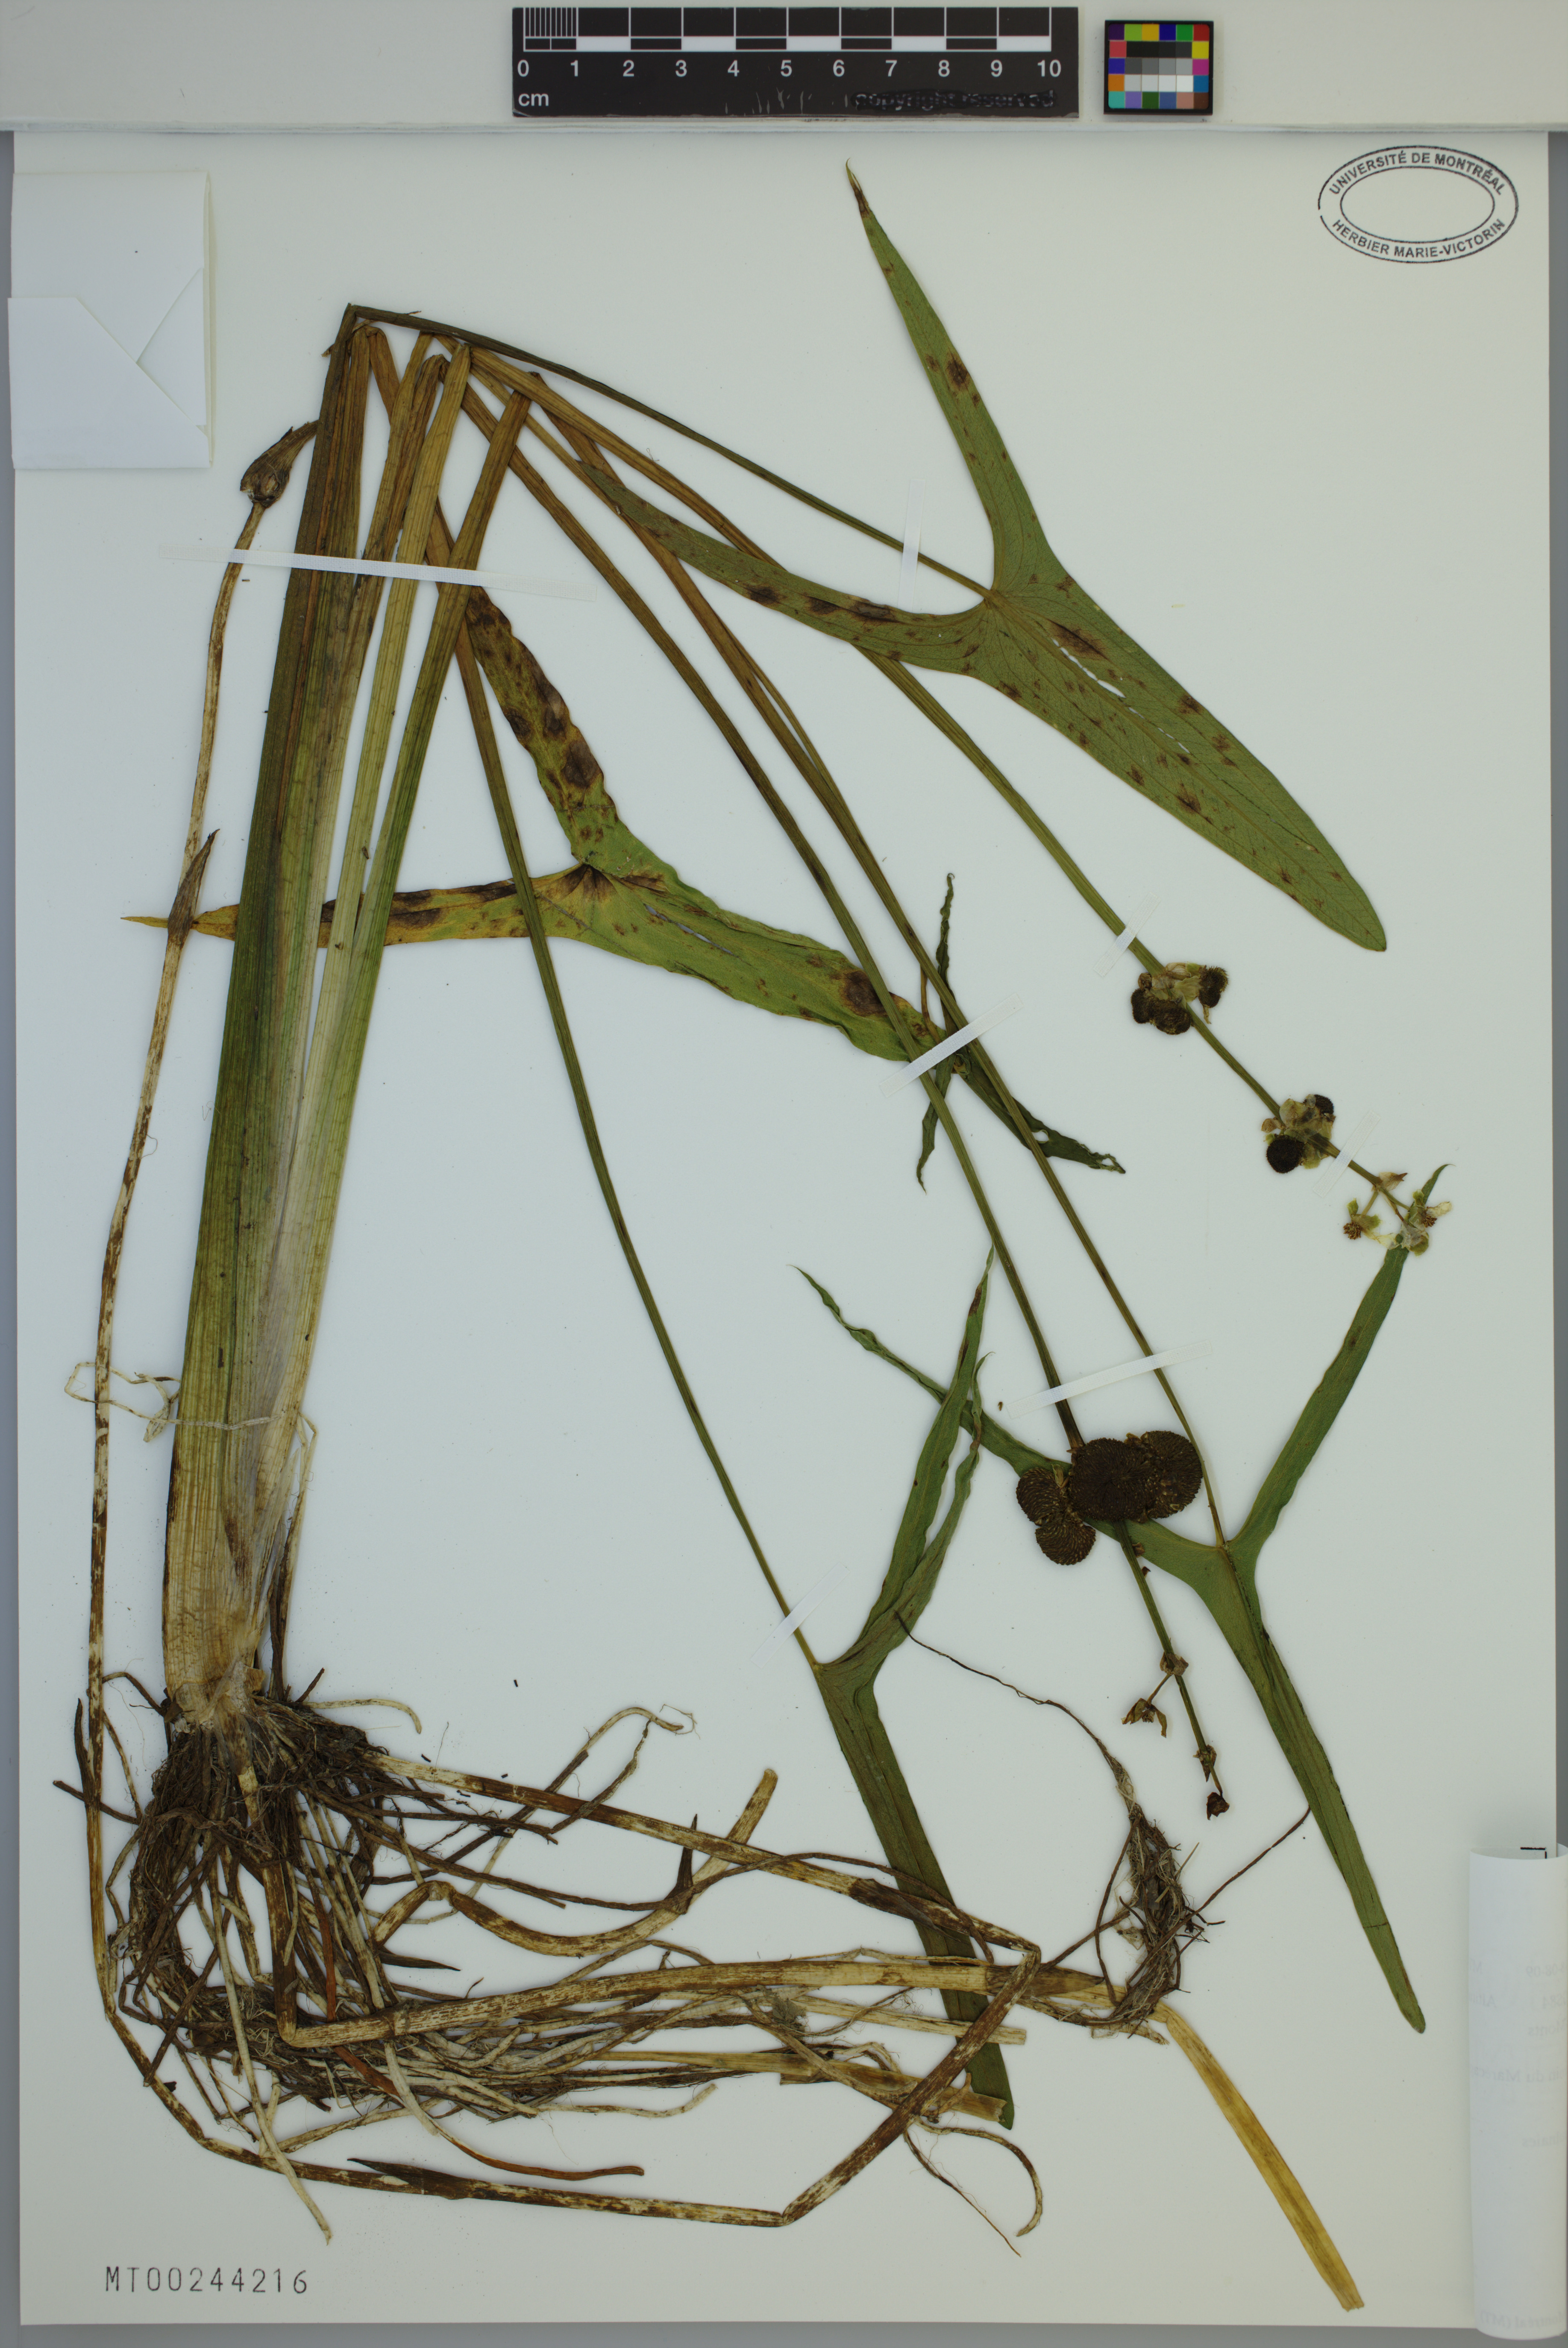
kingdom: Plantae
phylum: Tracheophyta
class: Liliopsida
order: Alismatales
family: Alismataceae
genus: Sagittaria
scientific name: Sagittaria latifolia
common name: Duck-potato
